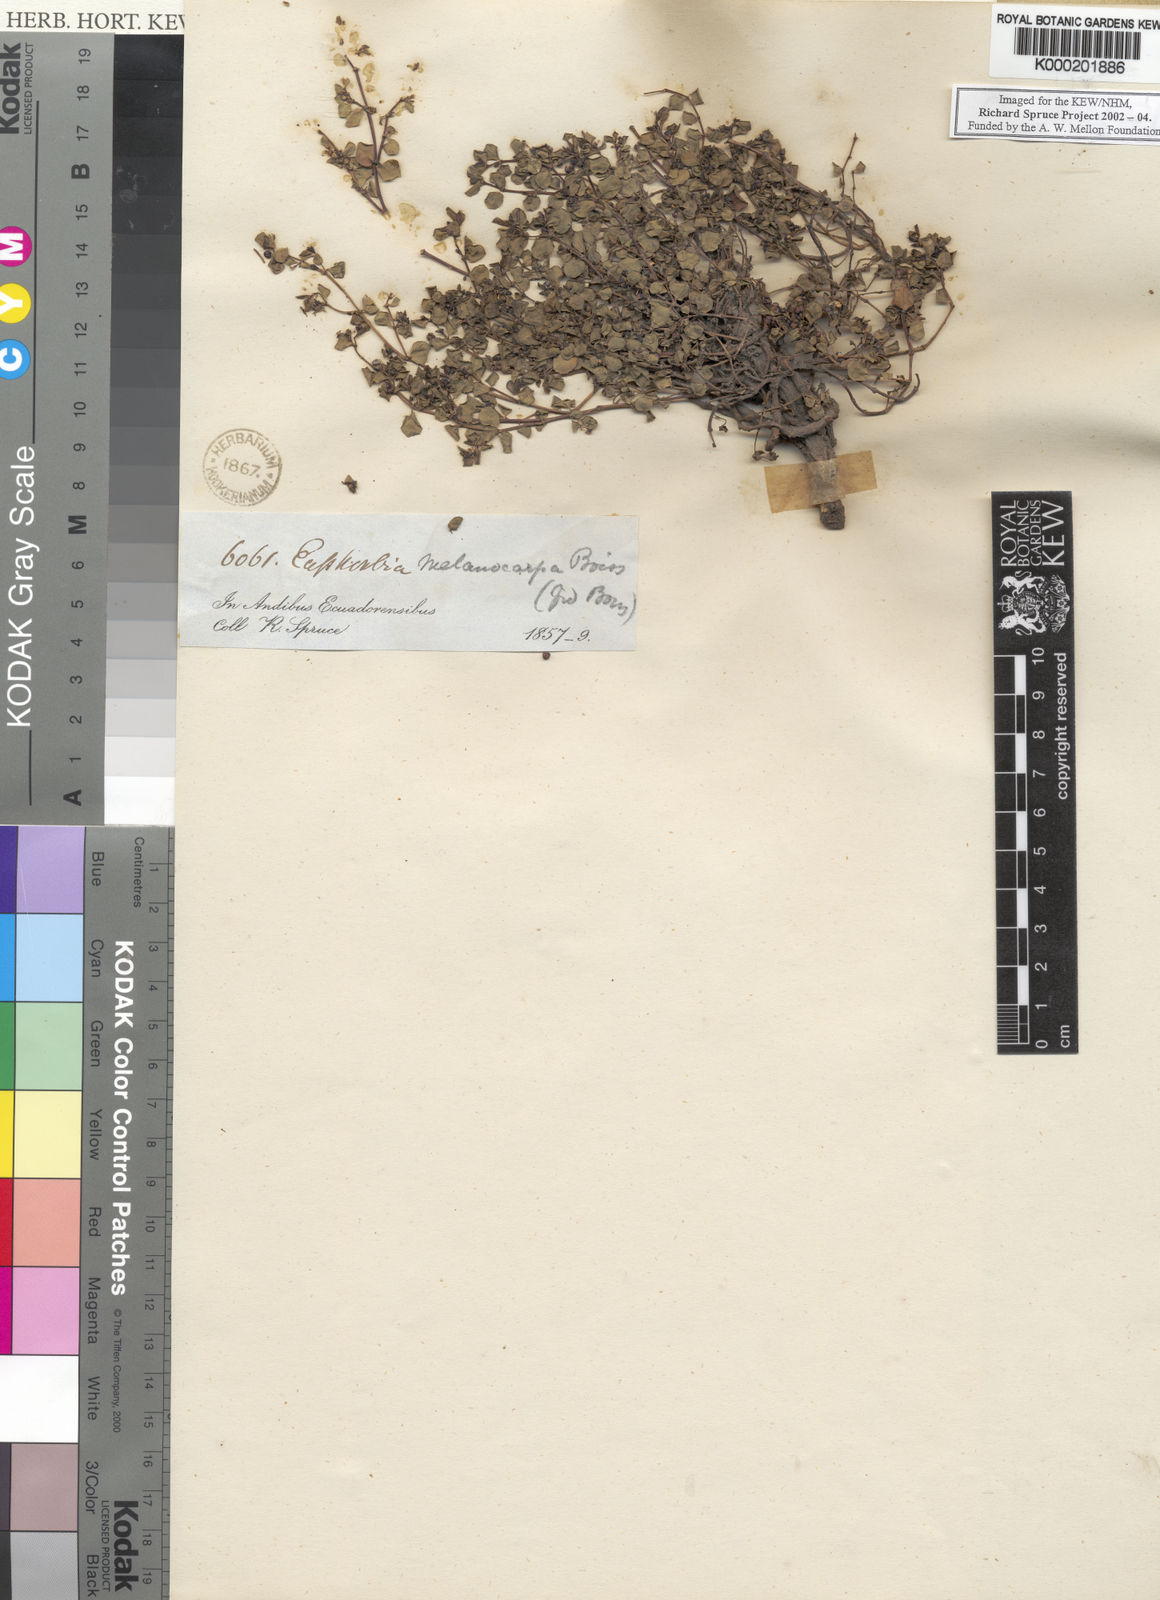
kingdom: Plantae
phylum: Tracheophyta
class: Magnoliopsida
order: Malpighiales
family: Euphorbiaceae
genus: Euphorbia
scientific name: Euphorbia melanocarpa
